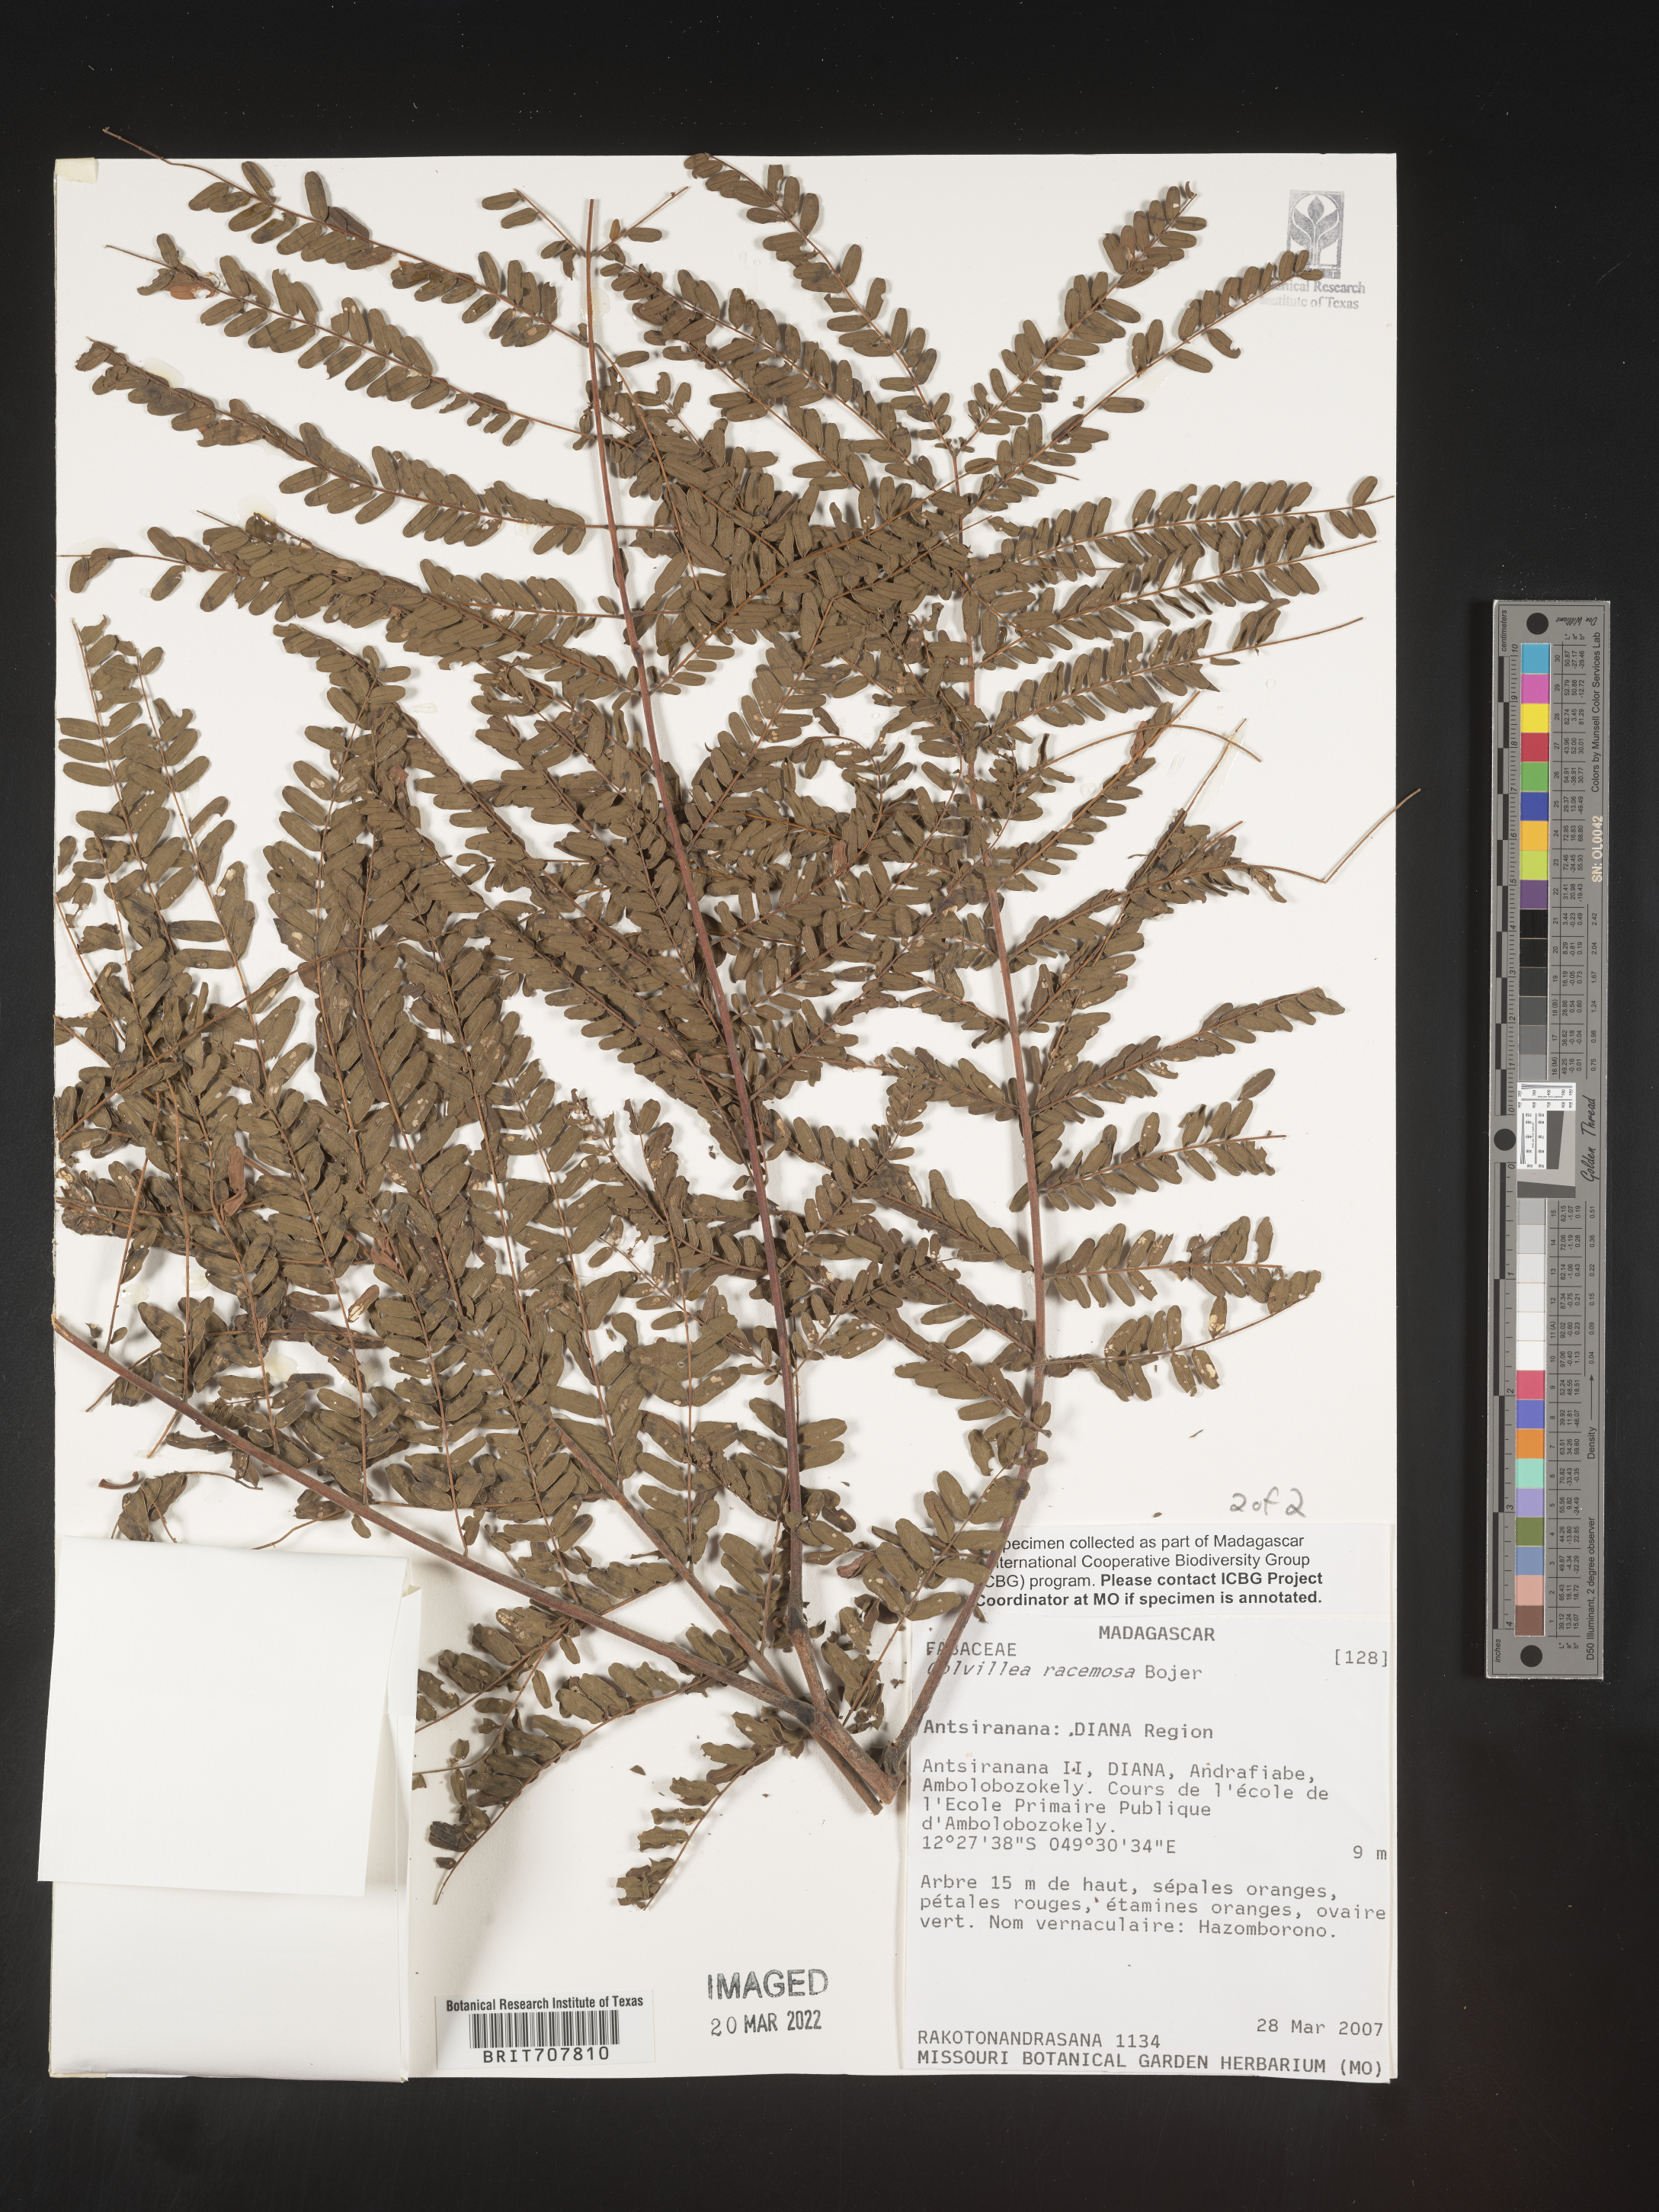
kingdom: Plantae
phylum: Tracheophyta
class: Magnoliopsida
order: Fabales
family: Fabaceae
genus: Colvillea
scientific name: Colvillea
